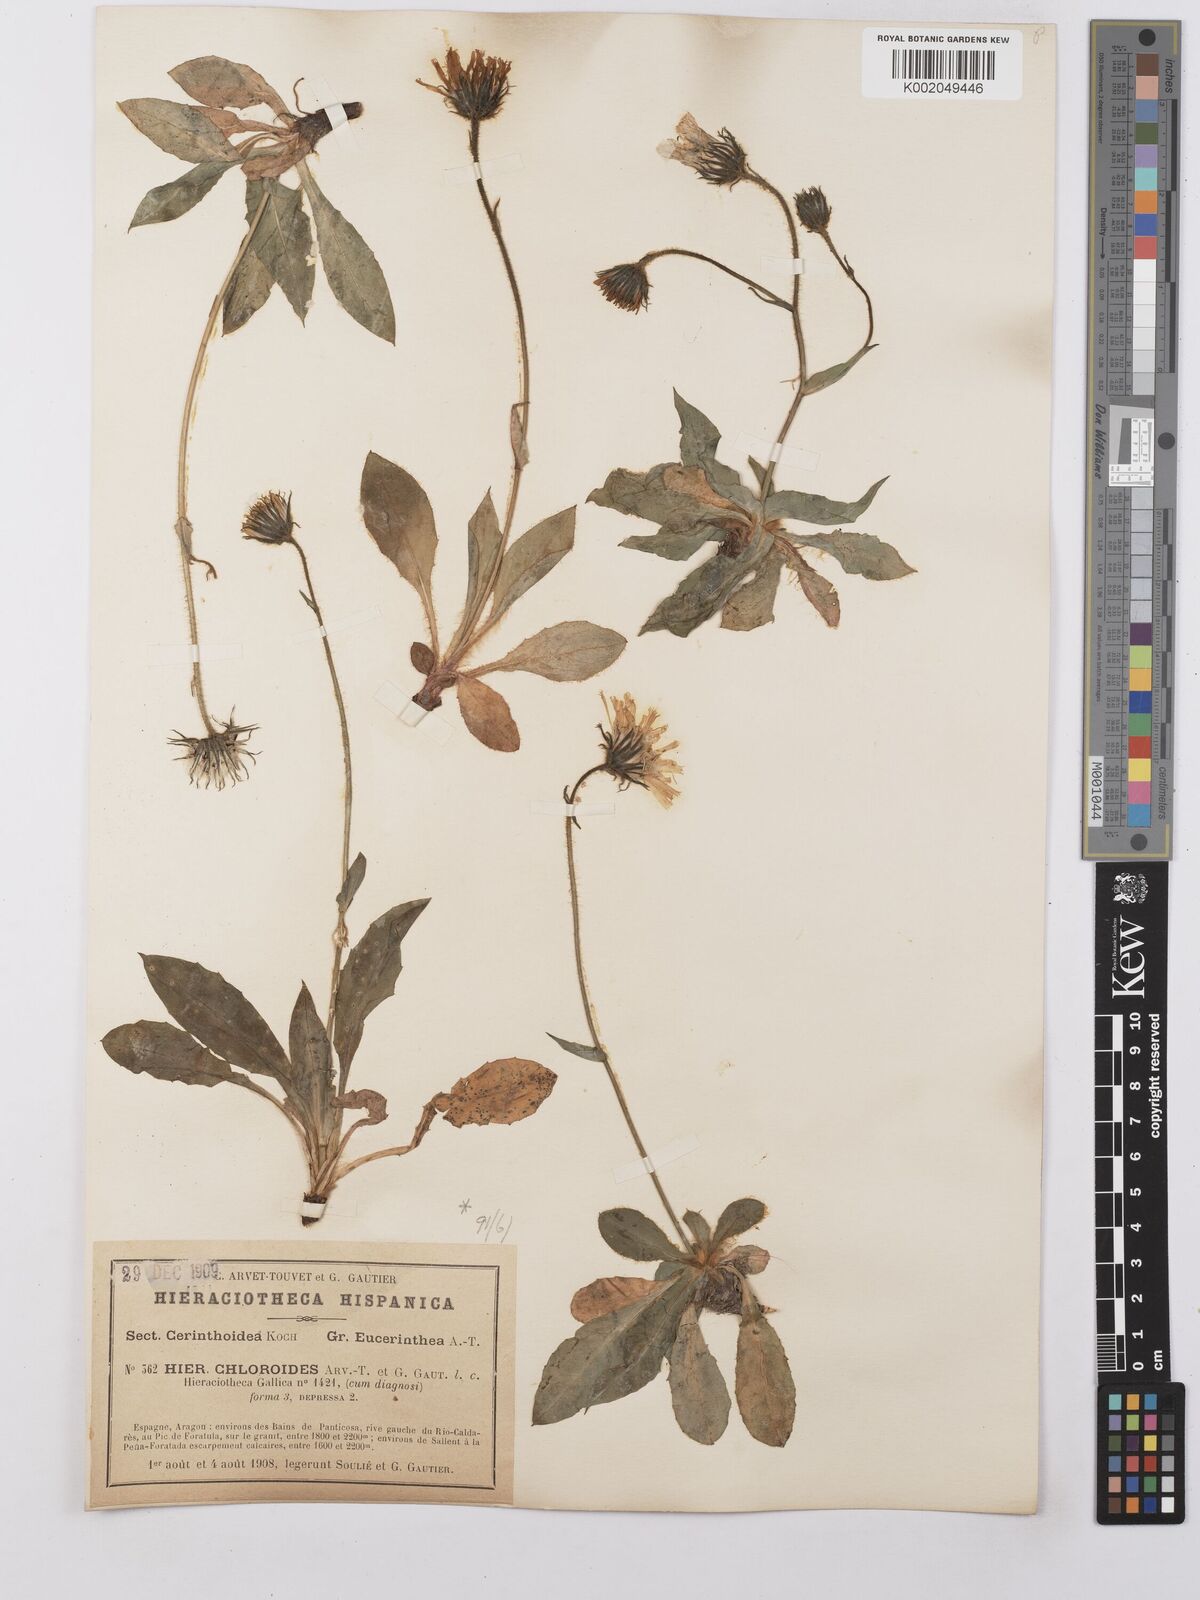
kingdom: Plantae
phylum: Tracheophyta
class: Magnoliopsida
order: Asterales
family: Asteraceae
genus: Hieracium
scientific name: Hieracium ramondii
